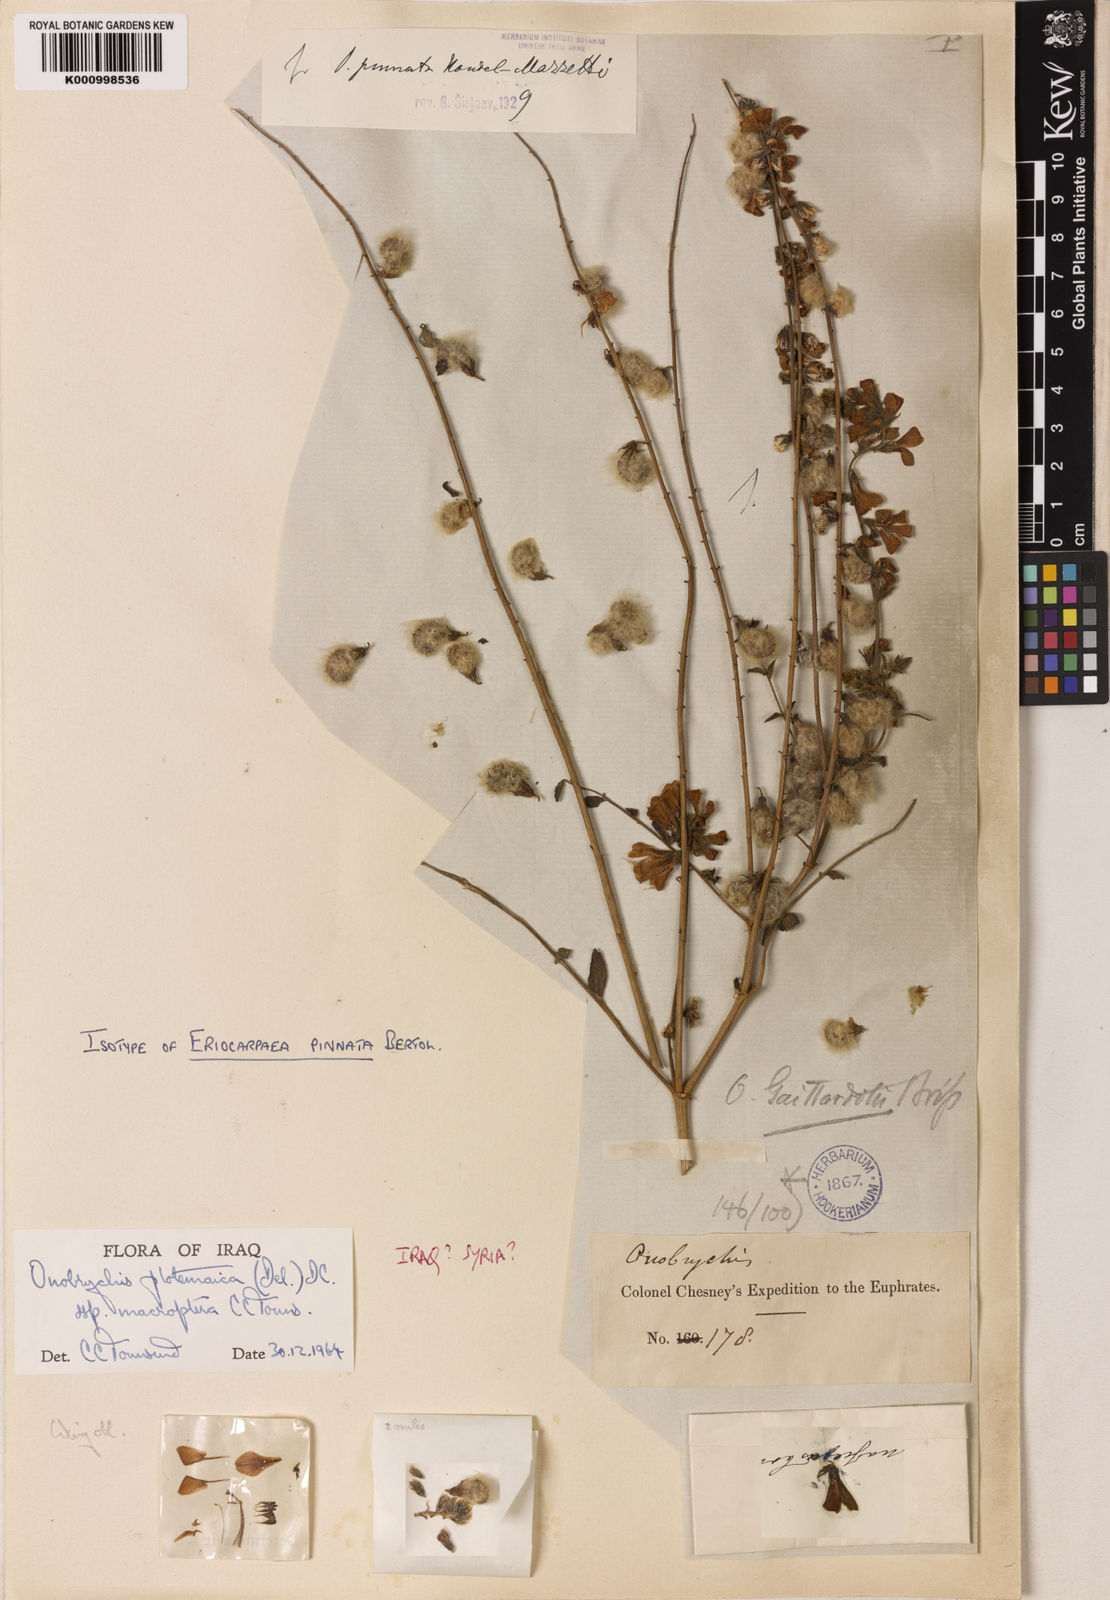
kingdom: Plantae
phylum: Tracheophyta
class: Magnoliopsida
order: Fabales
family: Fabaceae
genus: Onobrychis
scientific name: Onobrychis ptolemaica
